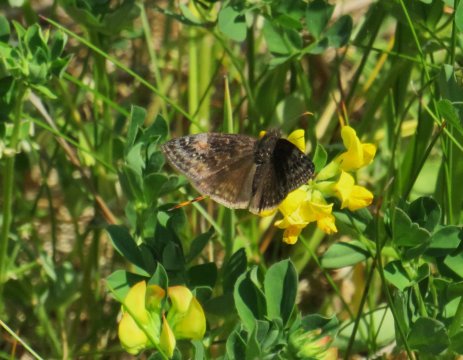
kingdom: Animalia
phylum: Arthropoda
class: Insecta
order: Lepidoptera
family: Hesperiidae
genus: Gesta
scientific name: Gesta
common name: Juvenal's Duskywing
